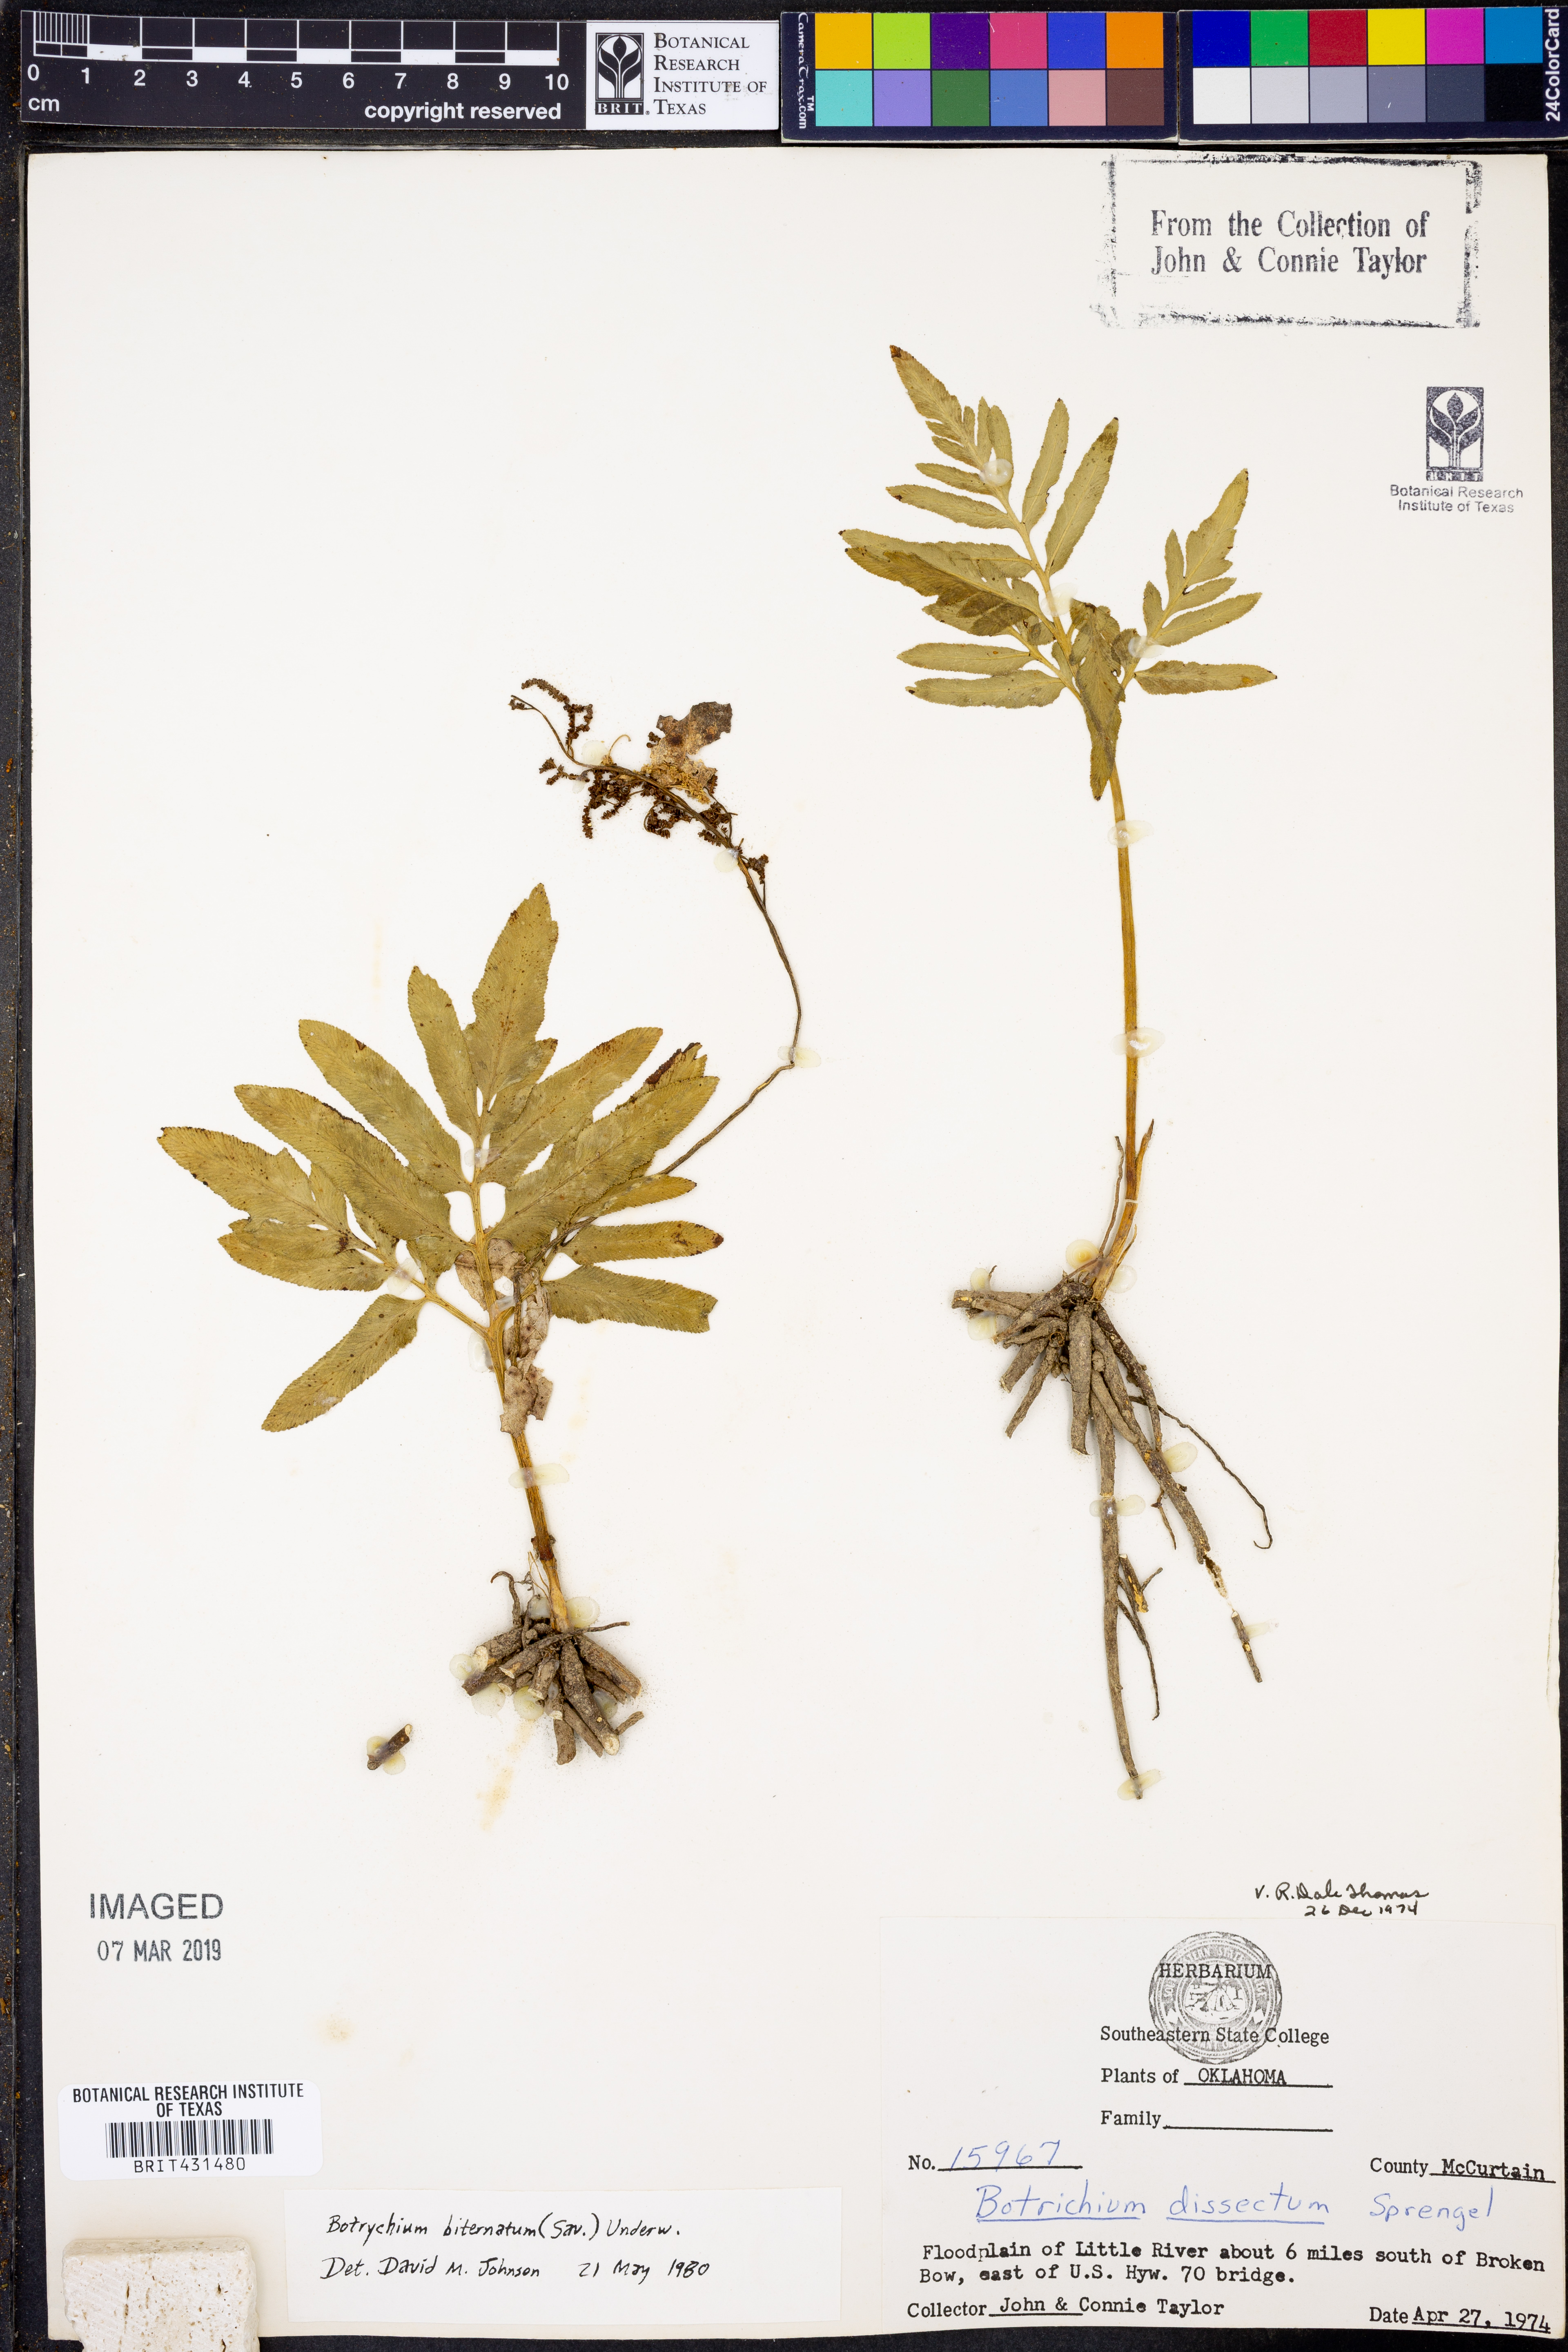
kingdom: Plantae
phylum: Tracheophyta
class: Polypodiopsida
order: Ophioglossales
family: Ophioglossaceae
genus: Sceptridium
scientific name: Sceptridium biternatum
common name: Sparse-lobed grapefern
